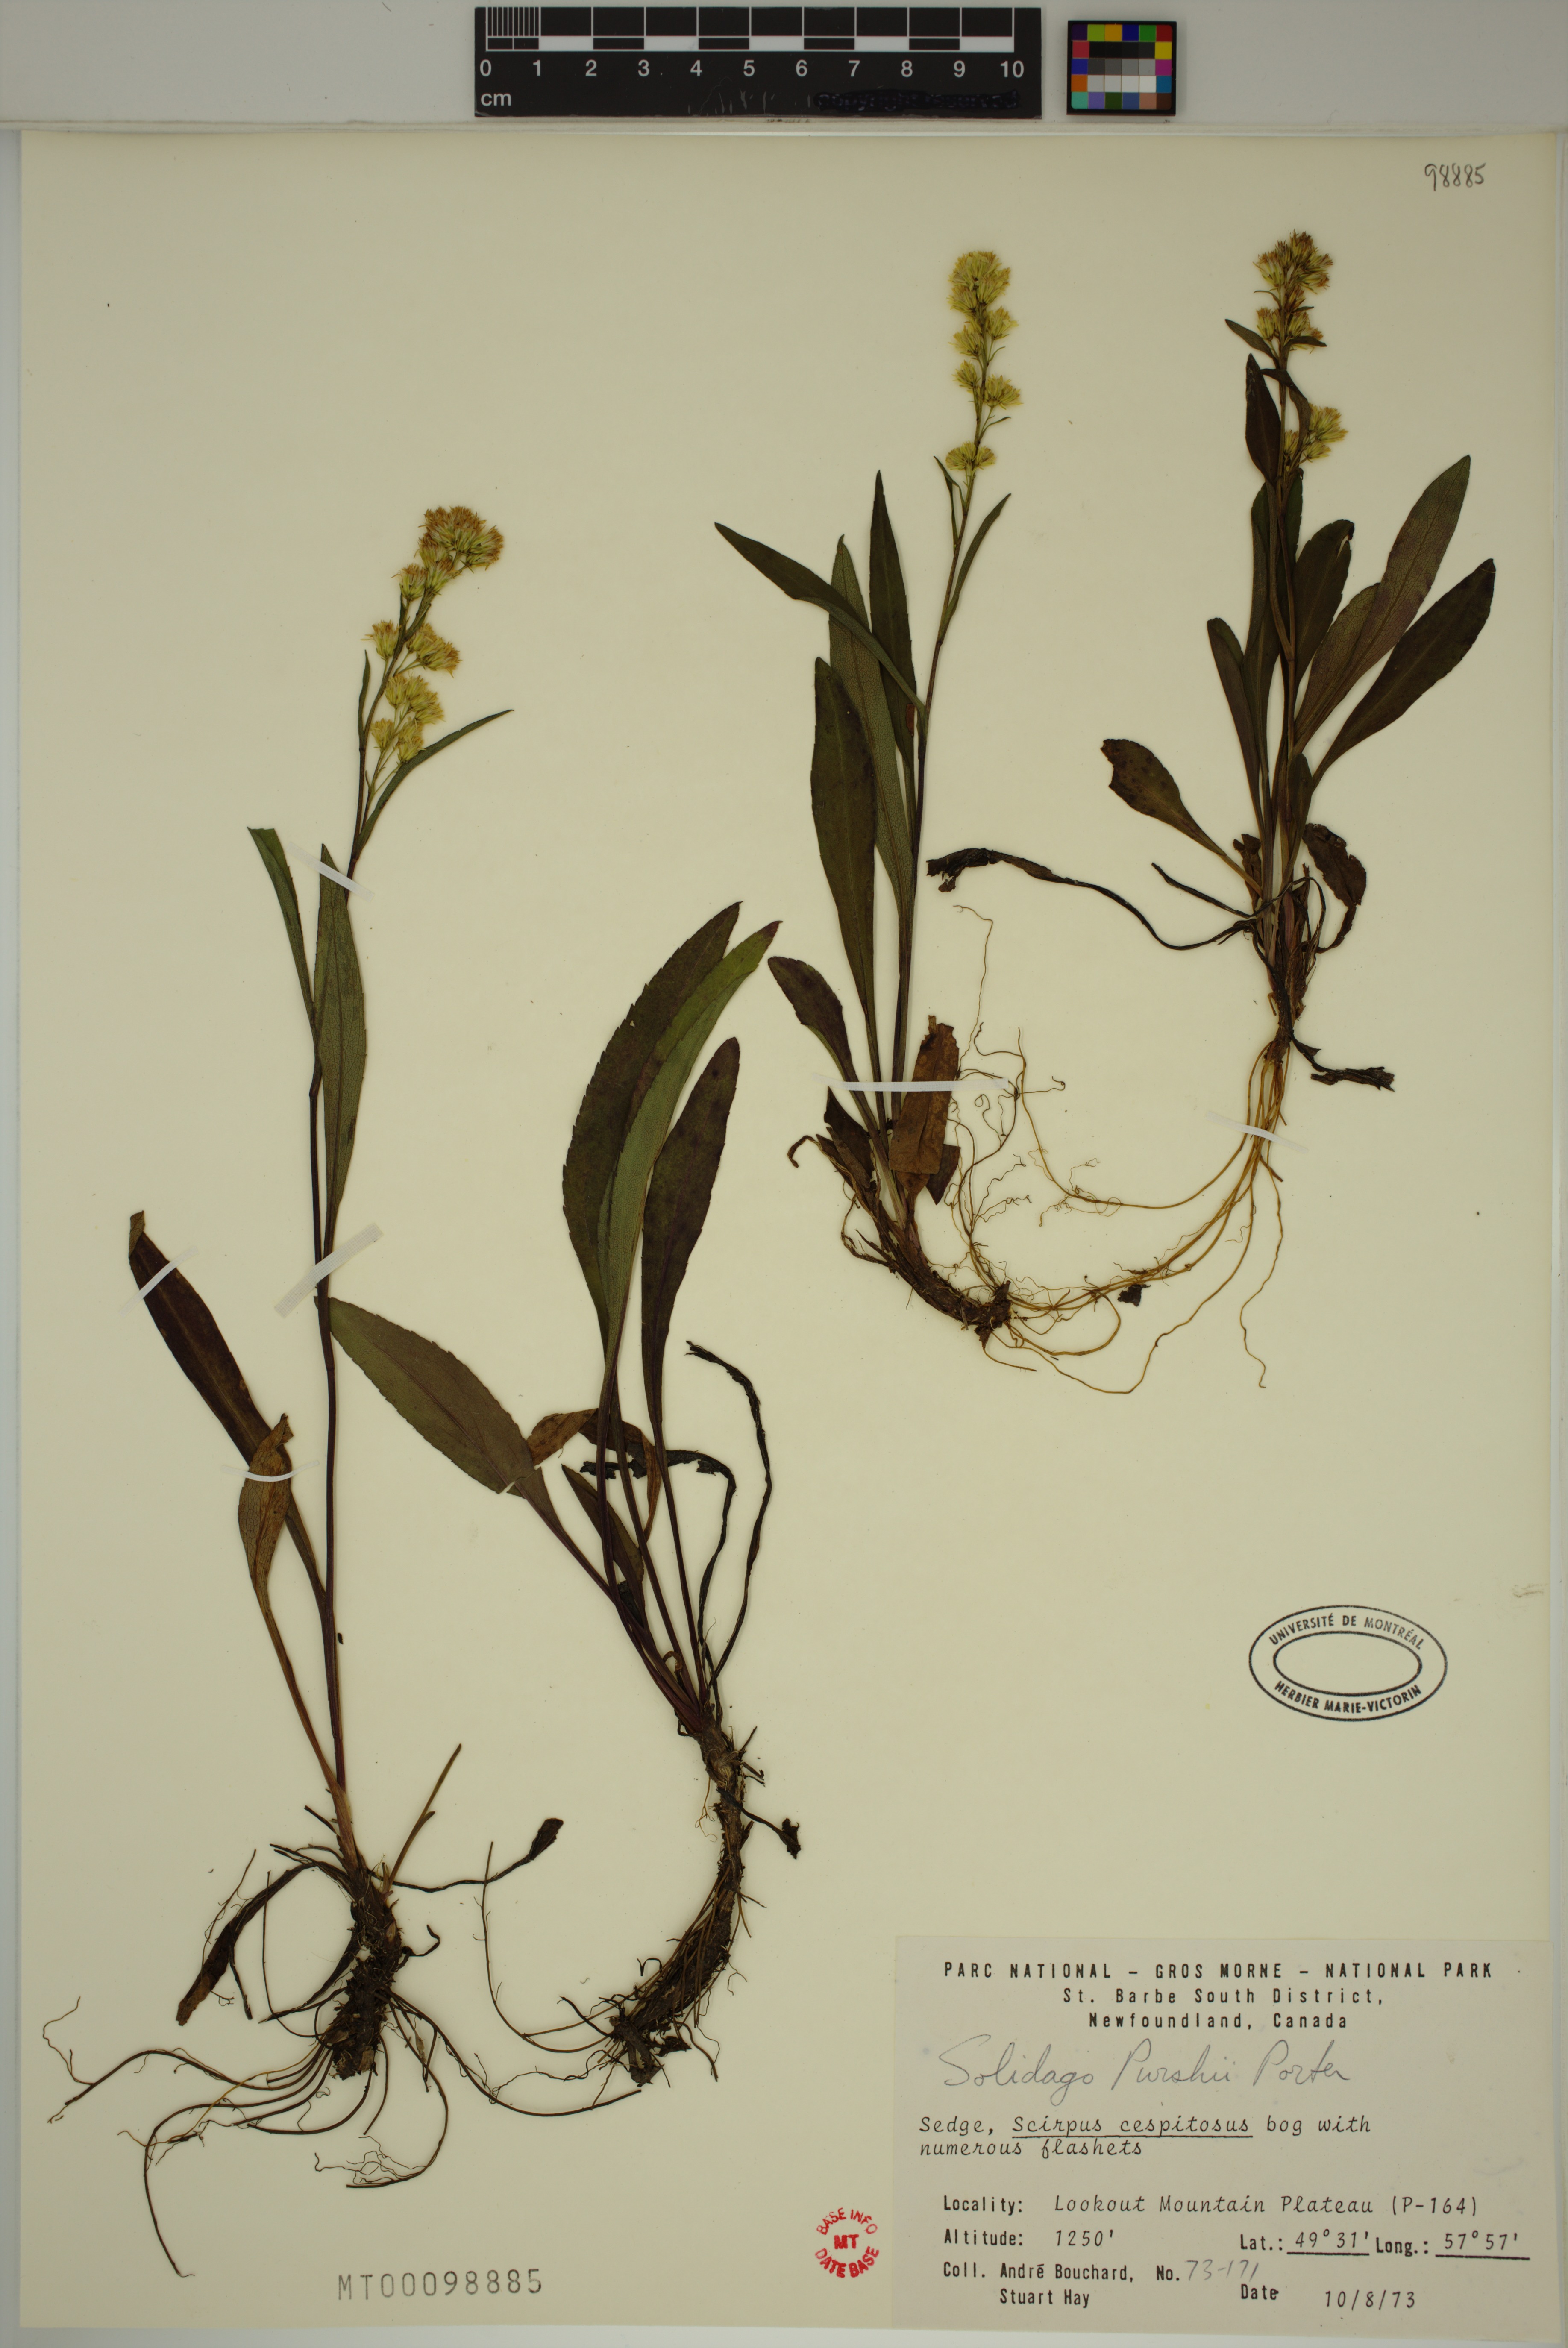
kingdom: Plantae
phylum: Tracheophyta
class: Magnoliopsida
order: Asterales
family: Asteraceae
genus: Solidago
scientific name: Solidago uliginosa
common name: Bog goldenrod
